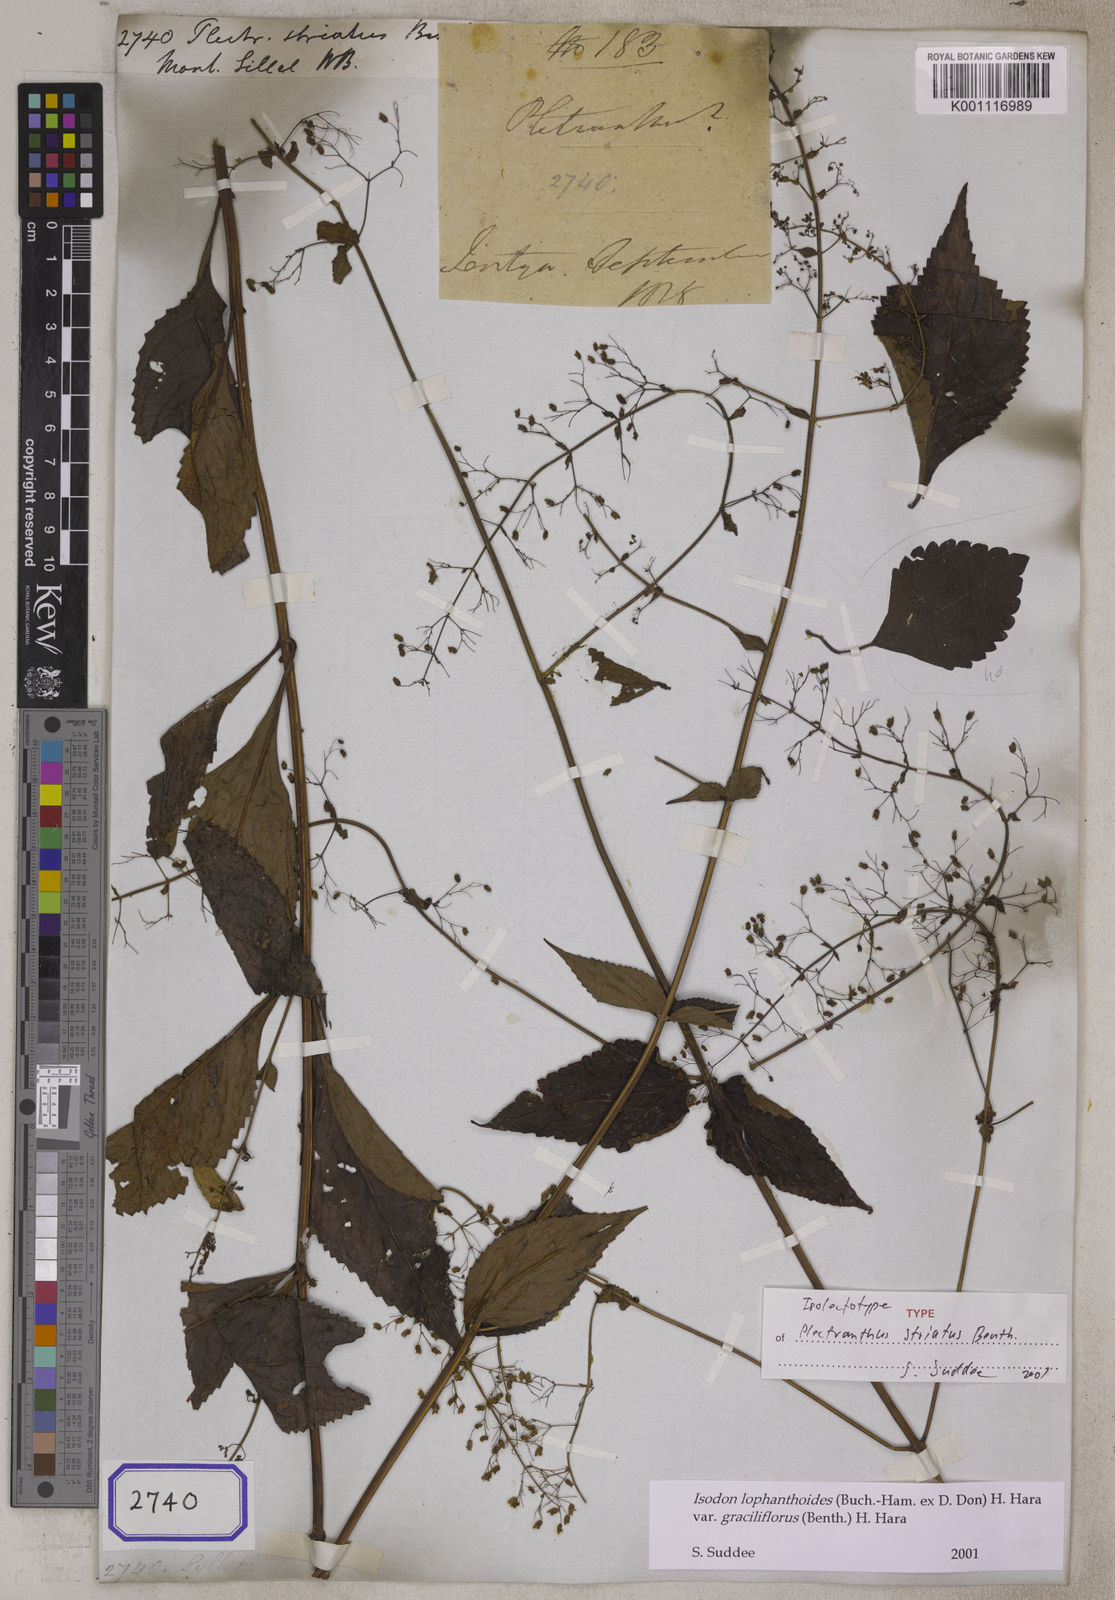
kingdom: Plantae
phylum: Tracheophyta
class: Magnoliopsida
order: Lamiales
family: Lamiaceae
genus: Isodon
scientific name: Isodon lophanthoides
